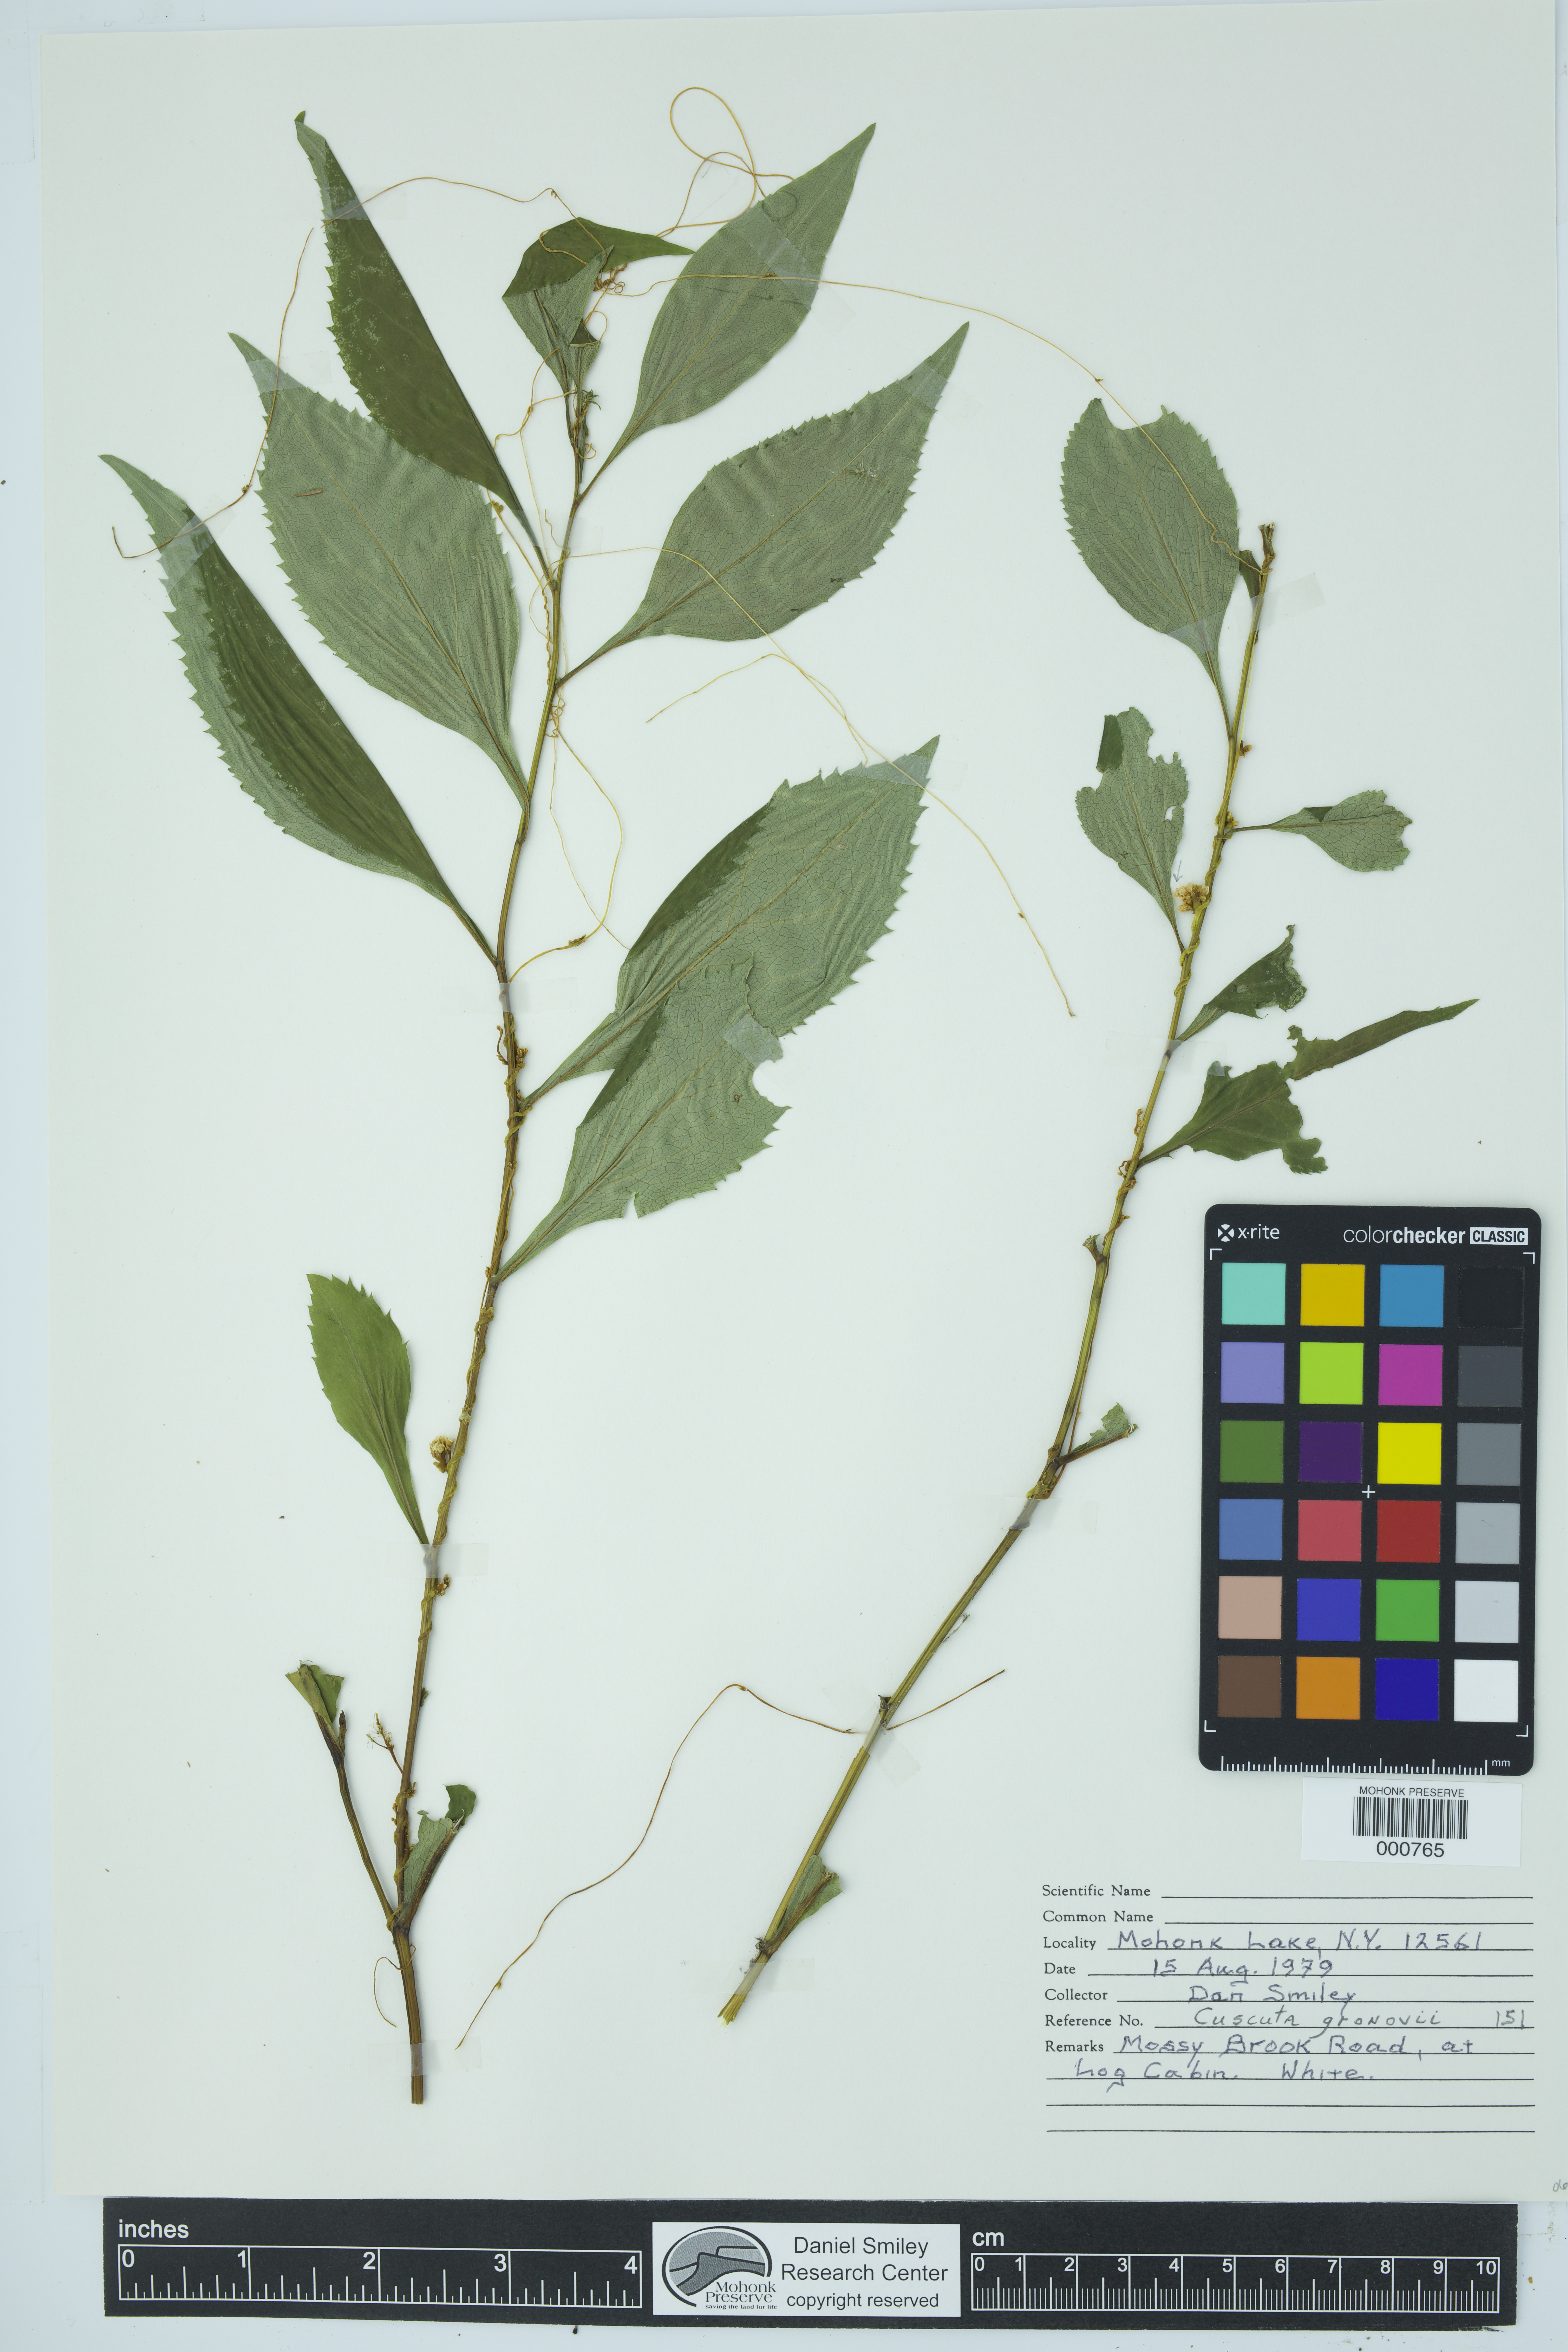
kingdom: Plantae
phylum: Tracheophyta
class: Magnoliopsida
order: Solanales
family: Convolvulaceae
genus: Cuscuta
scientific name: Cuscuta gronovii
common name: Common dodder
